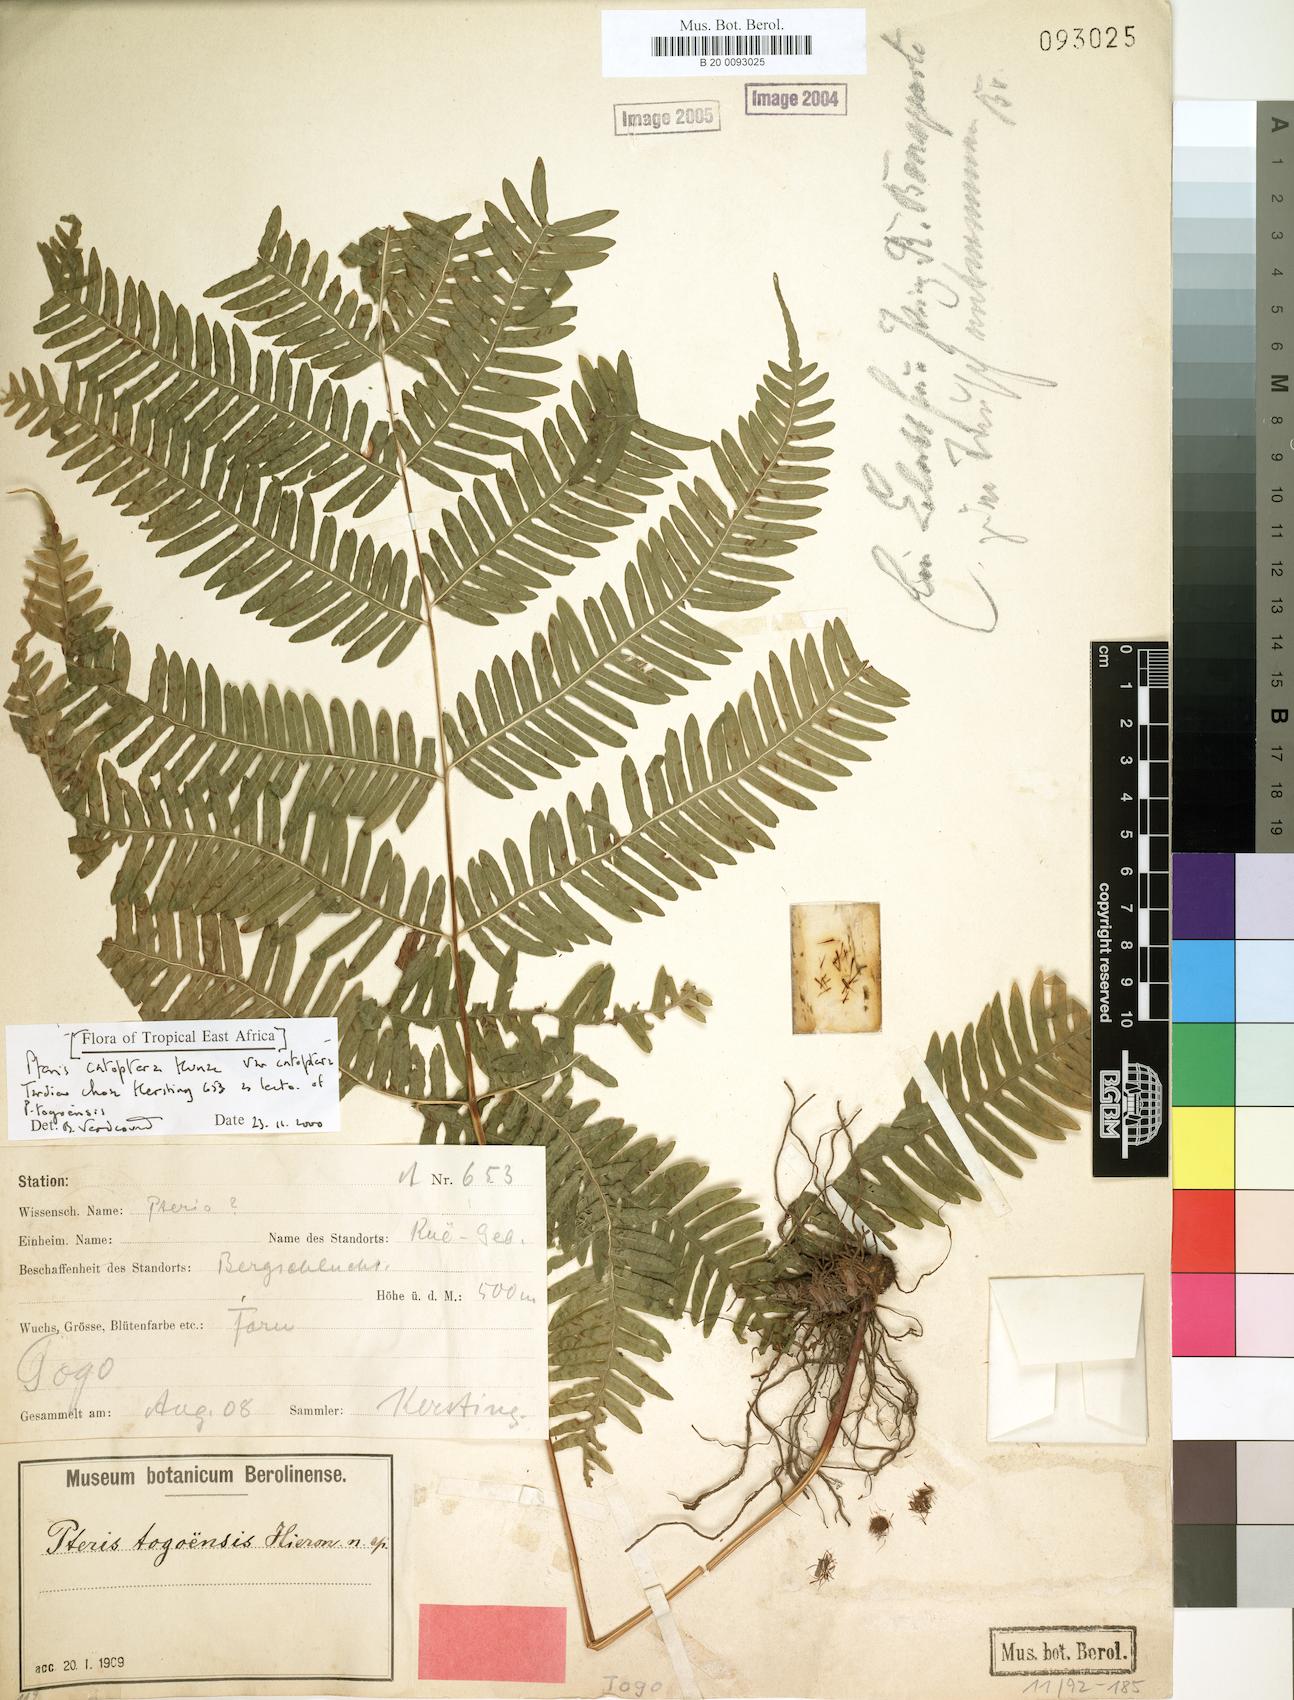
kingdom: Plantae
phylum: Tracheophyta
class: Polypodiopsida
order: Polypodiales
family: Pteridaceae
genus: Pteris
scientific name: Pteris togoensis
